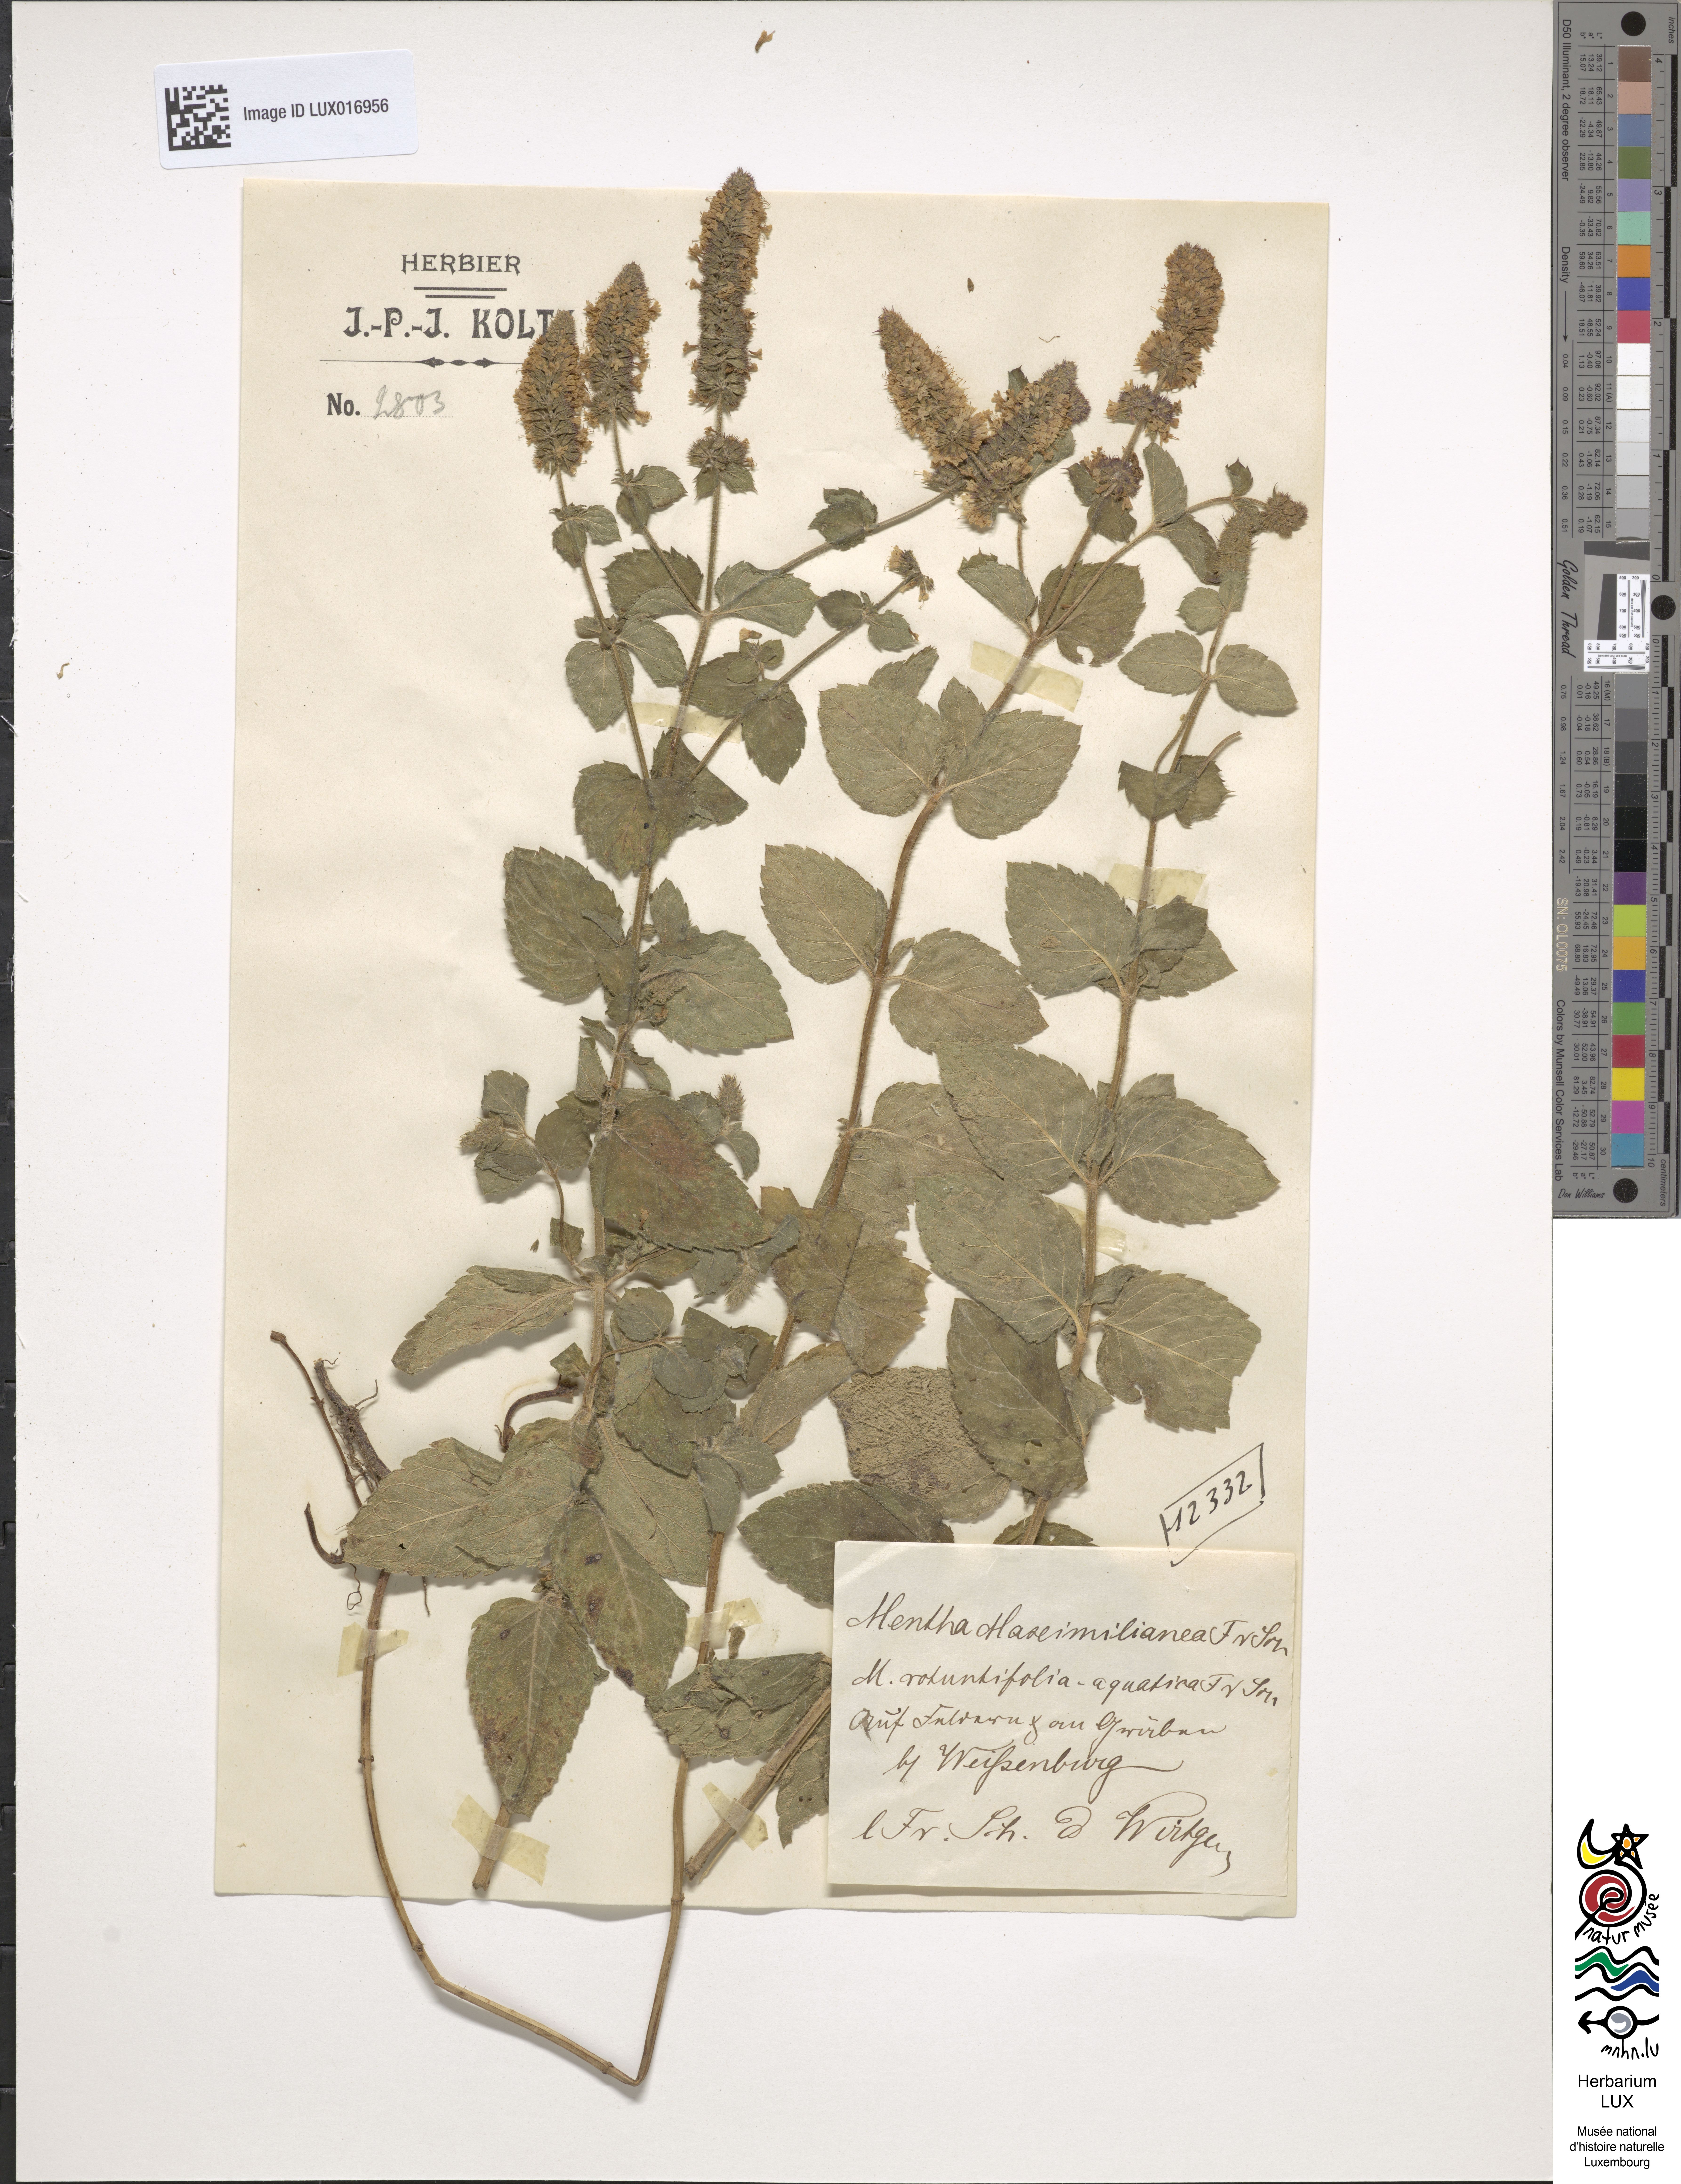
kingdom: Plantae
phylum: Tracheophyta
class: Magnoliopsida
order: Lamiales
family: Lamiaceae
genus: Mentha
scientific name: Mentha suavis
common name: Sweet mint
